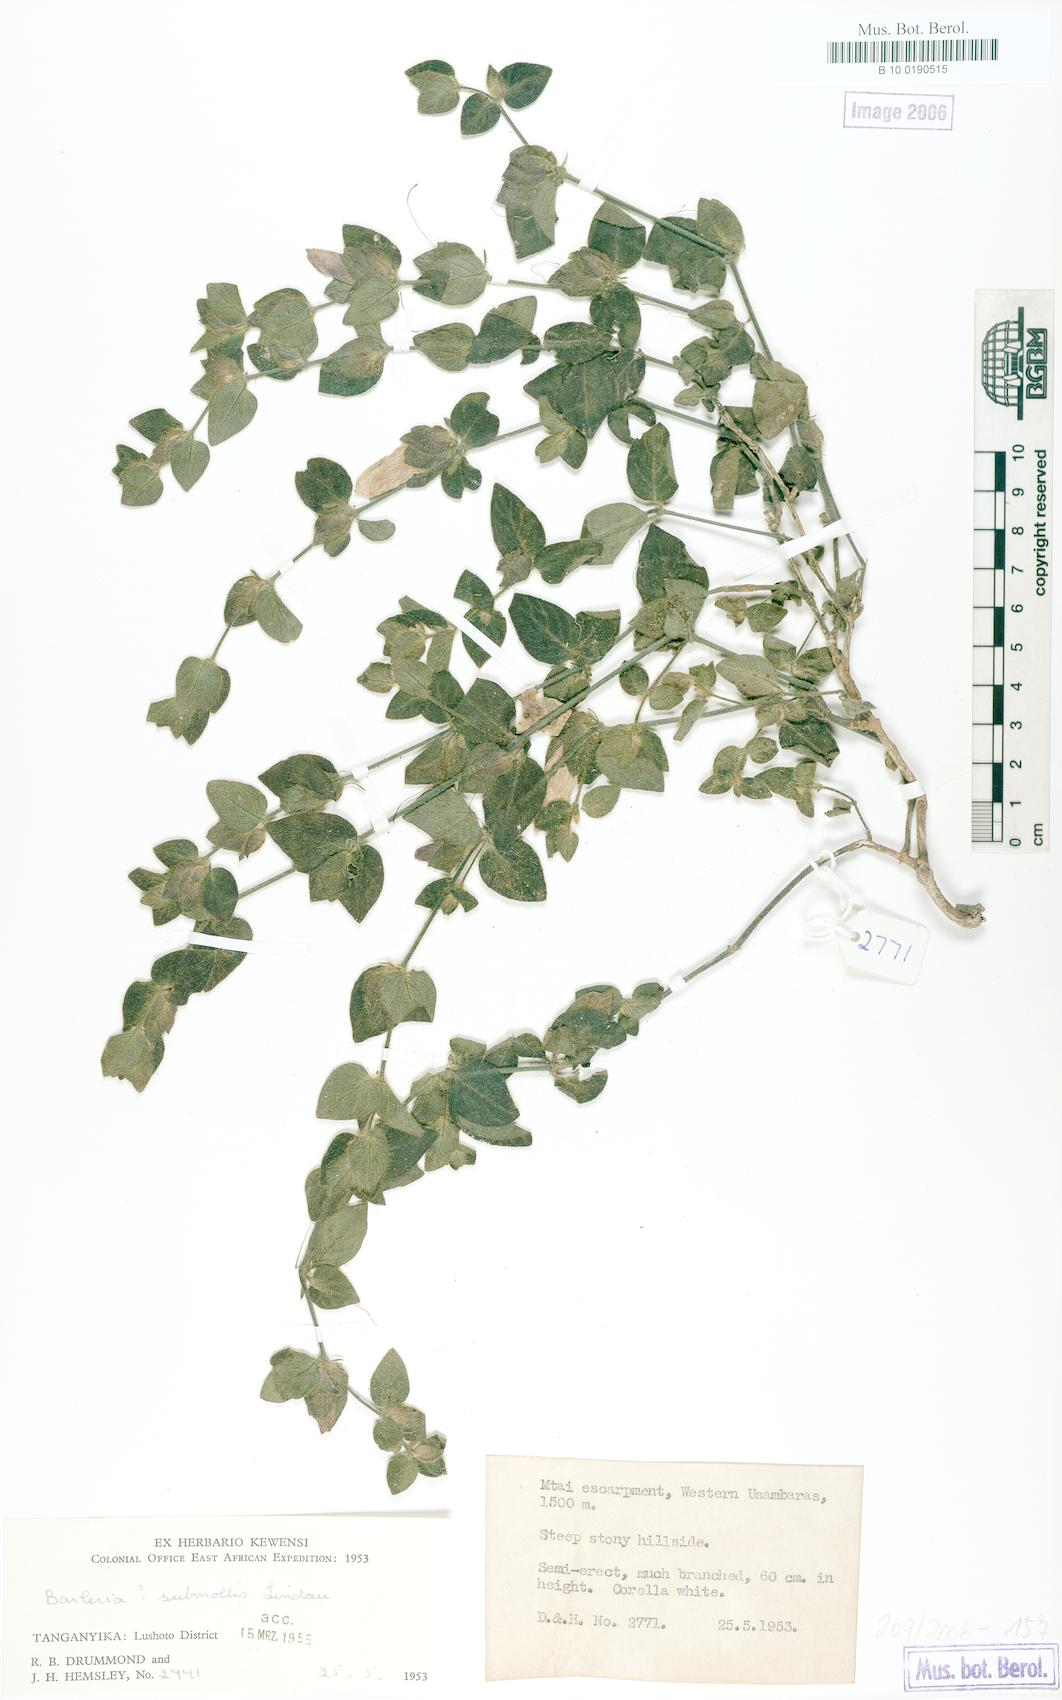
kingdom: Plantae
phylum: Tracheophyta
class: Magnoliopsida
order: Lamiales
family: Acanthaceae
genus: Barleria
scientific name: Barleria submollis
